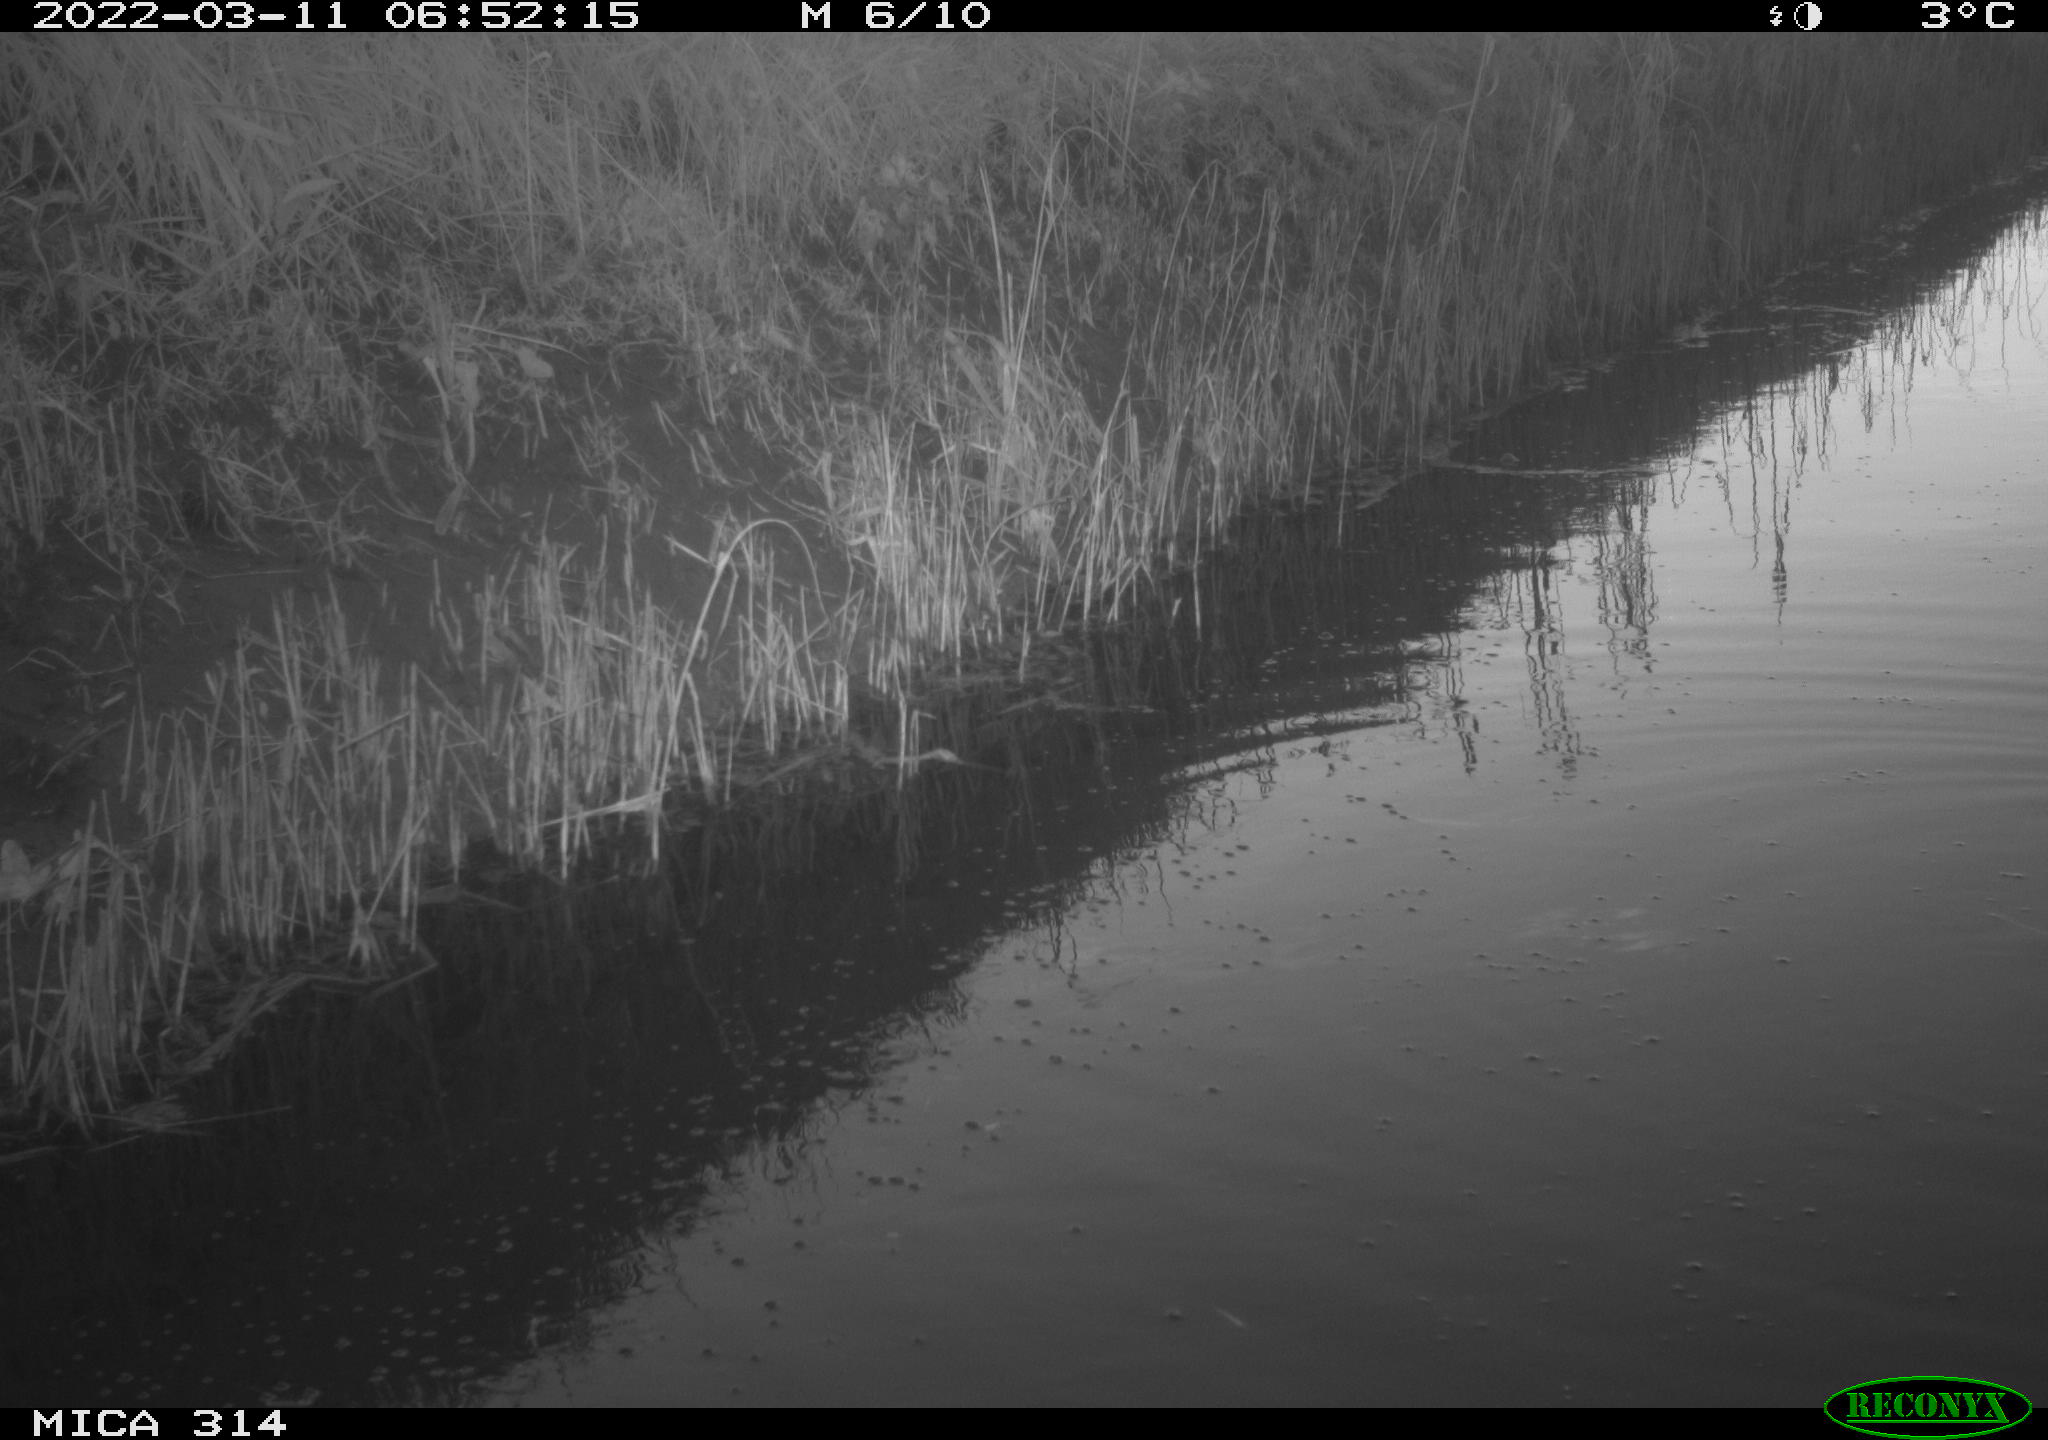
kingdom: Animalia
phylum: Chordata
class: Aves
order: Gruiformes
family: Rallidae
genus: Gallinula
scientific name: Gallinula chloropus
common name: Common moorhen
